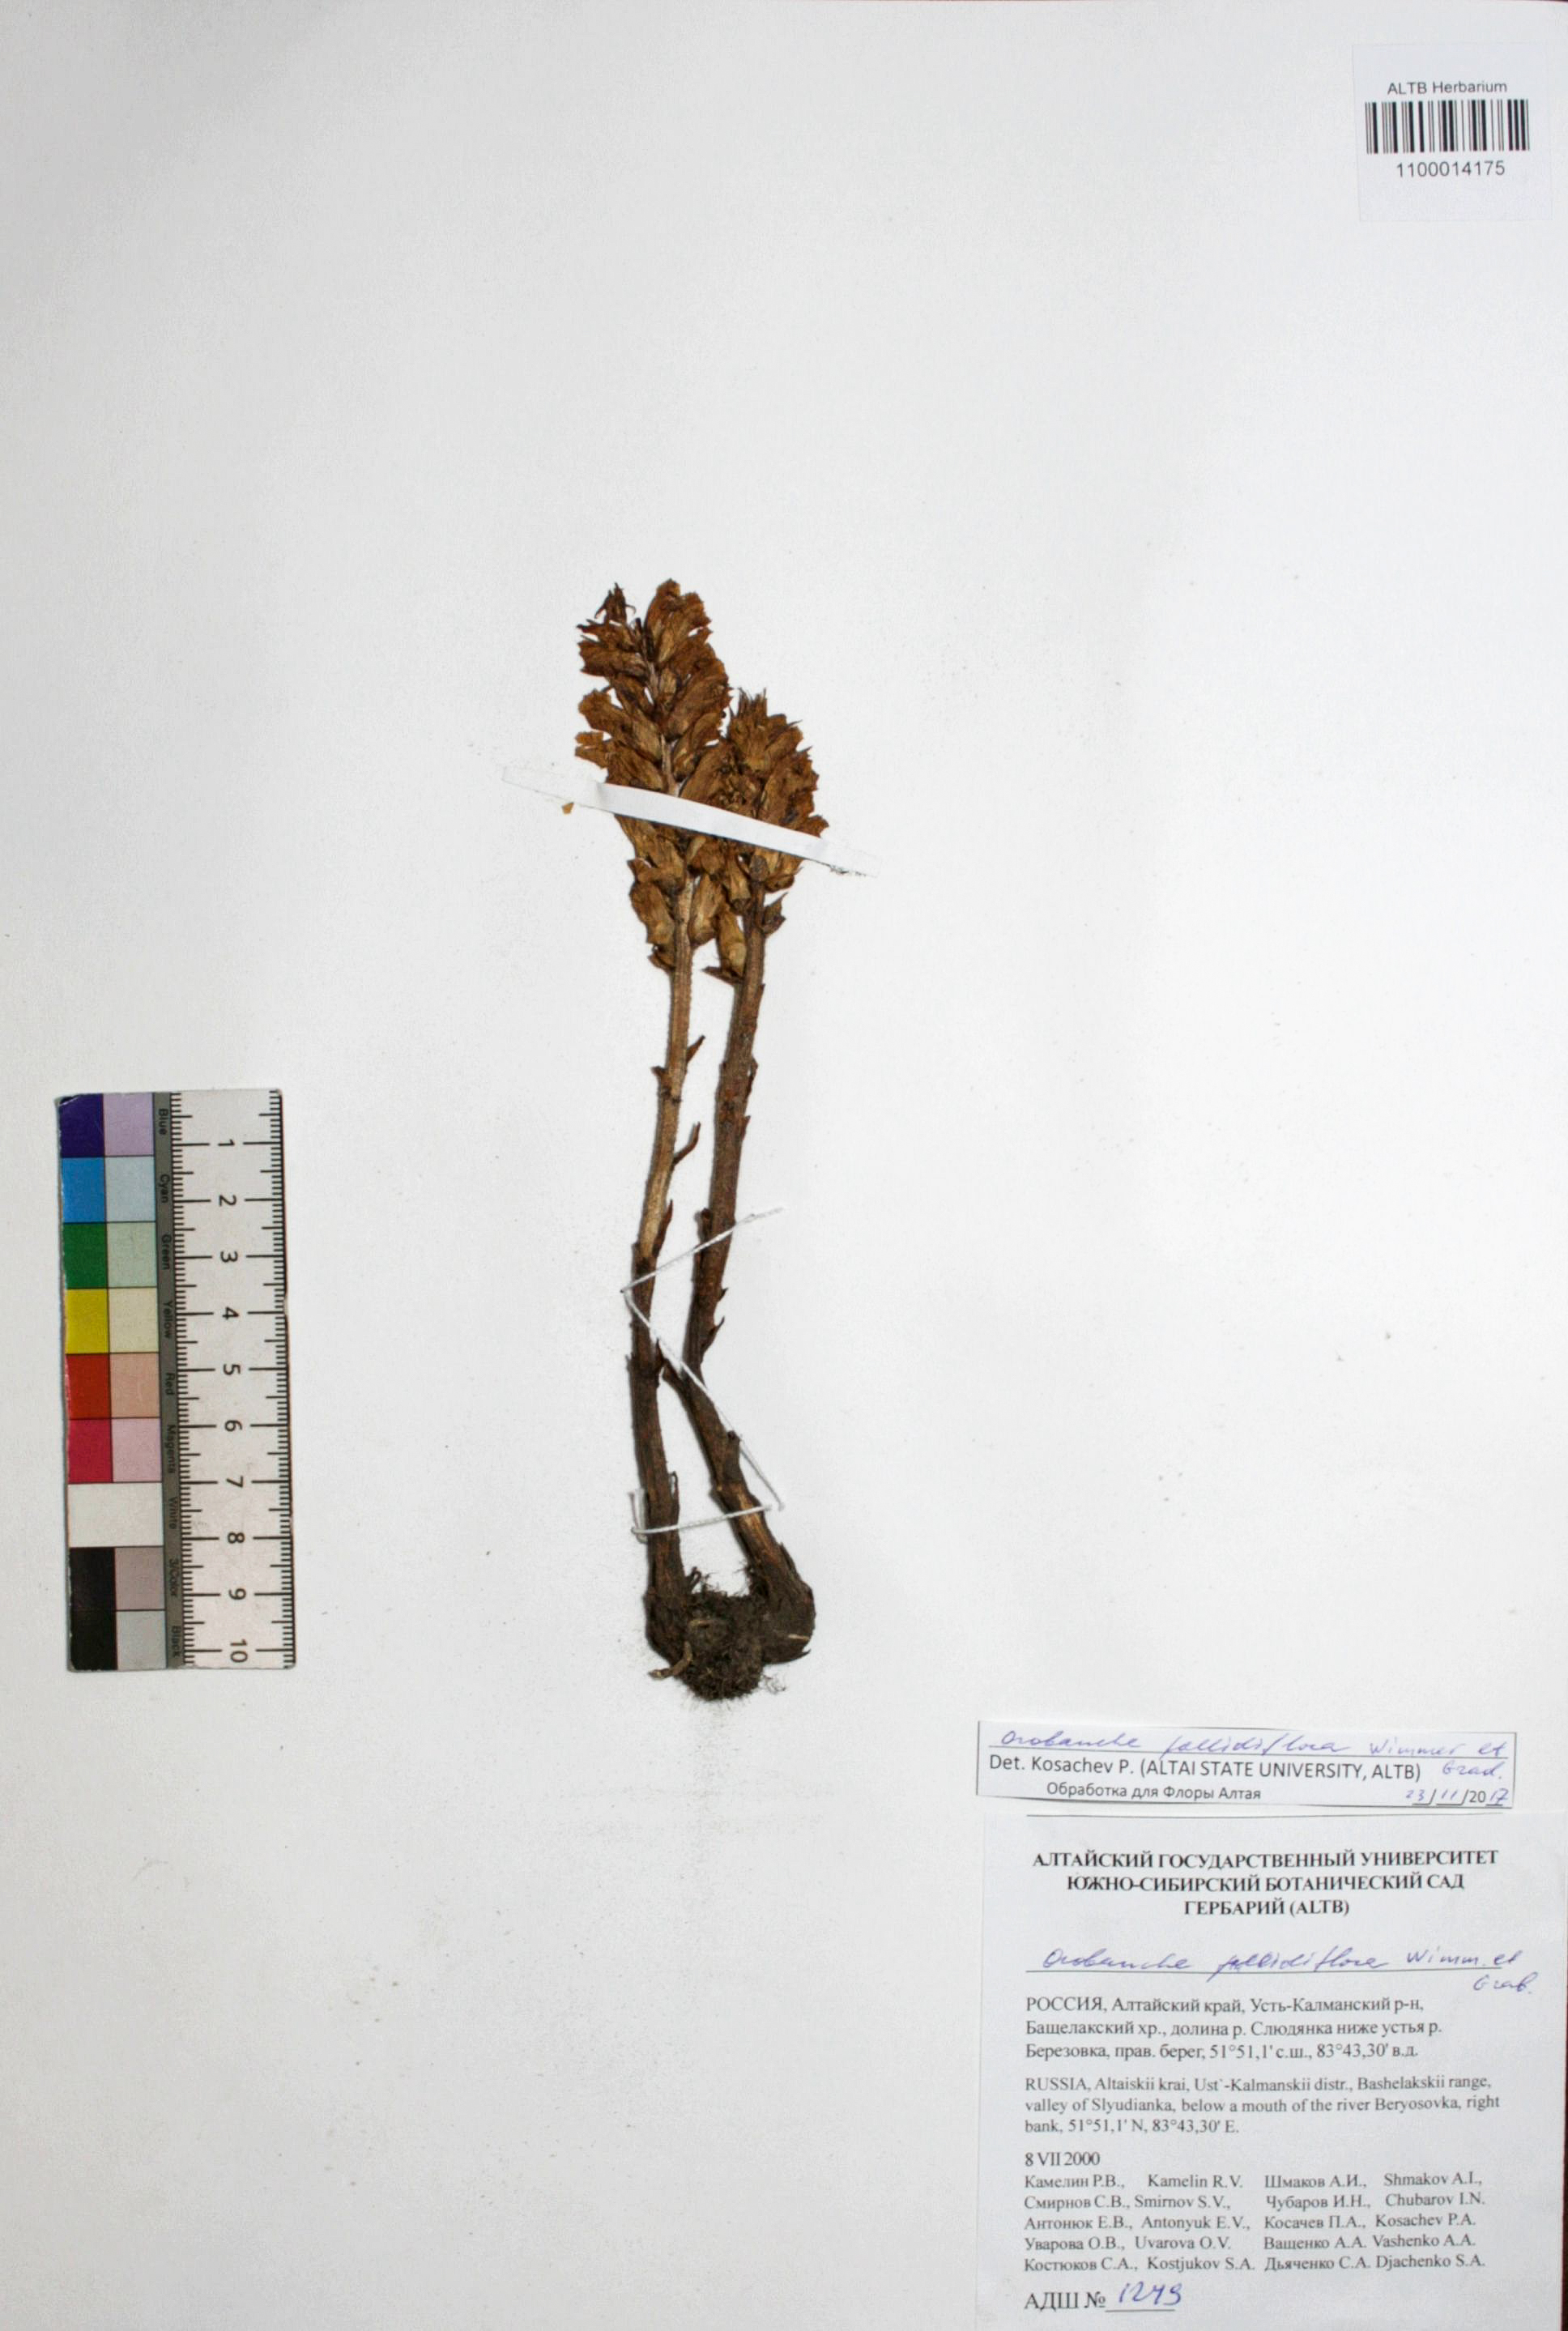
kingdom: Plantae
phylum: Tracheophyta
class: Magnoliopsida
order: Lamiales
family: Orobanchaceae
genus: Orobanche
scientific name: Orobanche reticulata
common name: Thistle broomrape
